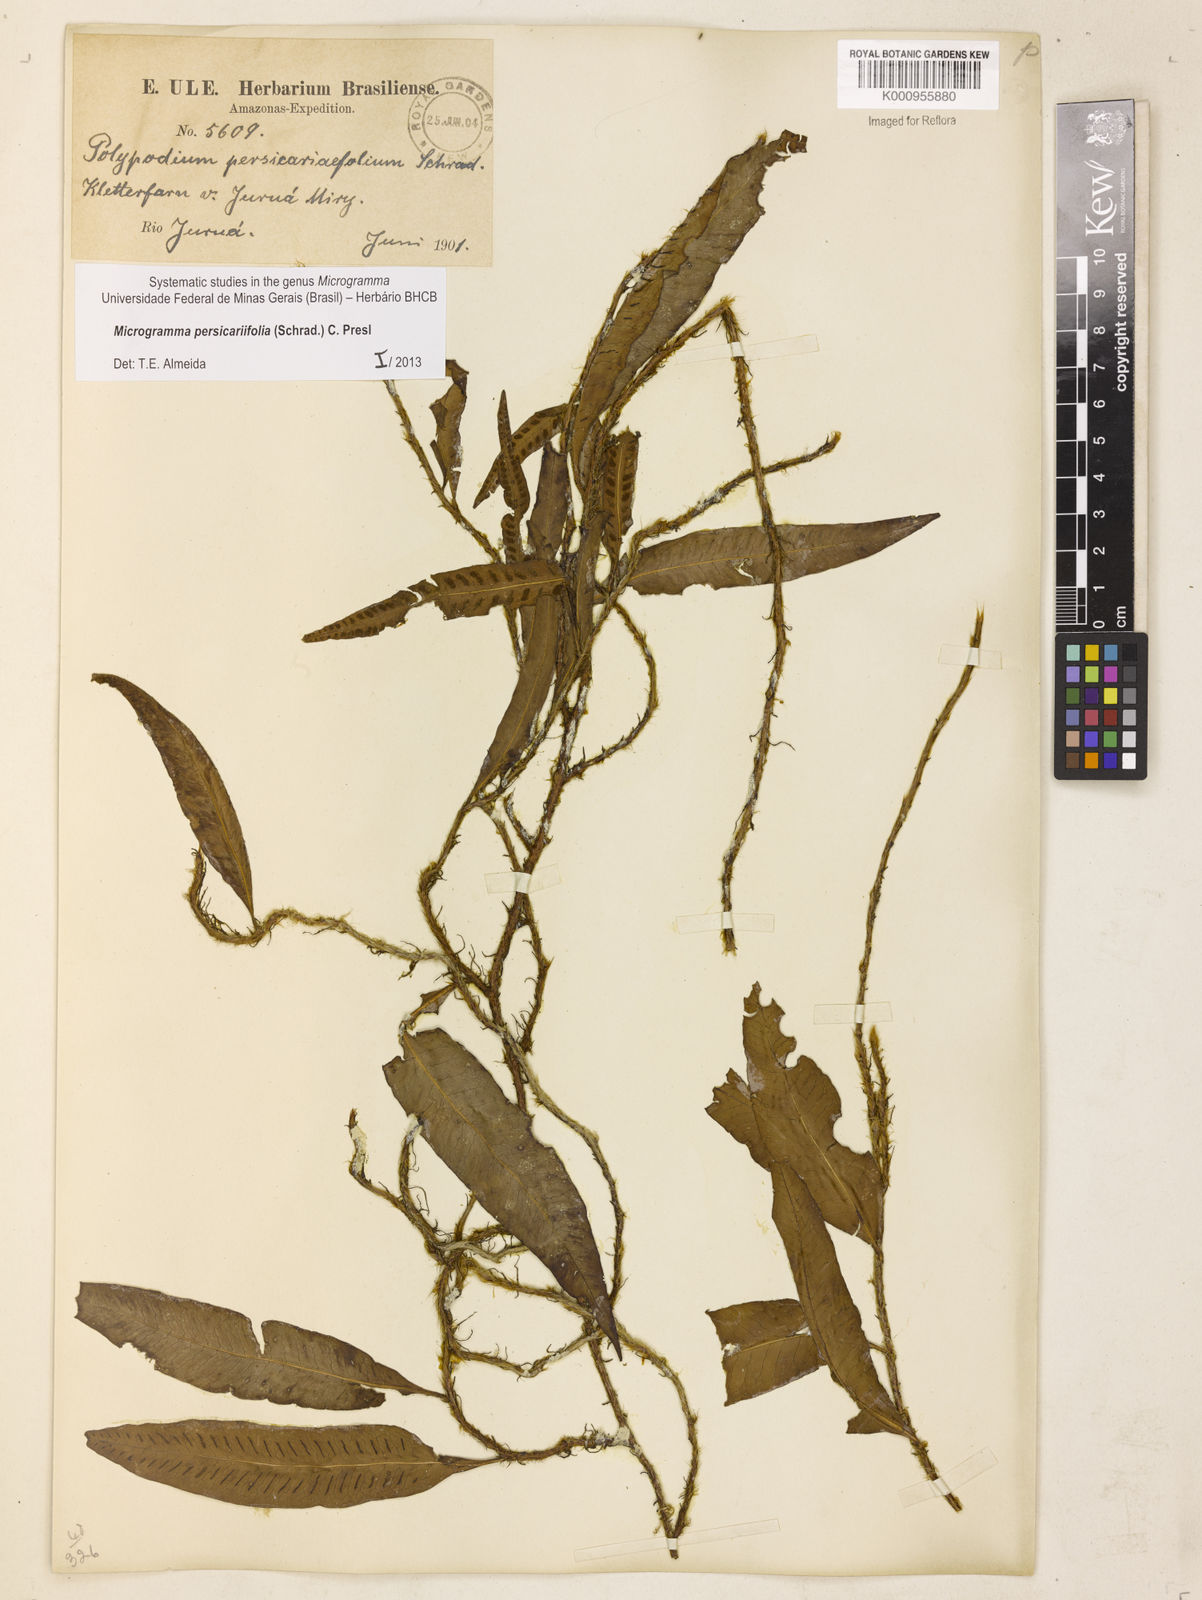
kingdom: Plantae
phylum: Tracheophyta
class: Polypodiopsida
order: Polypodiales
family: Polypodiaceae
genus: Microgramma
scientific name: Microgramma persicariifolia
